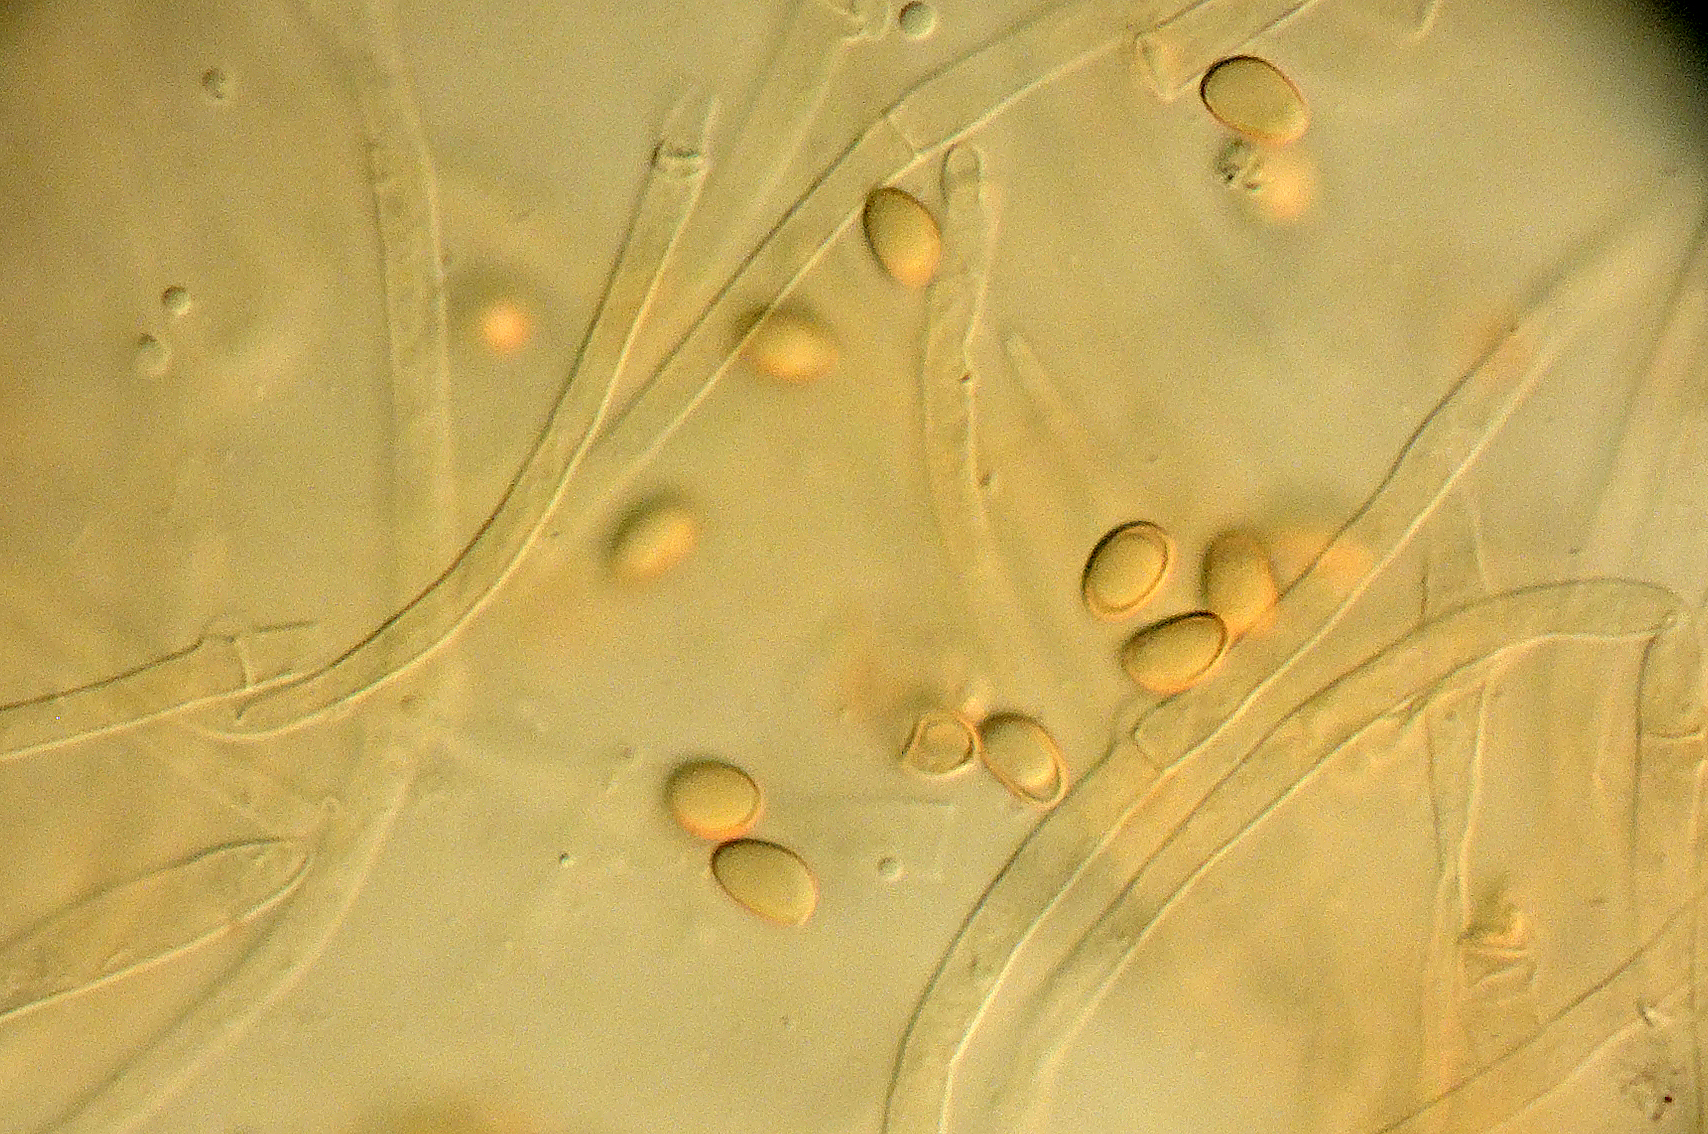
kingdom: Fungi
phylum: Basidiomycota
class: Agaricomycetes
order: Agaricales
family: Hymenogastraceae
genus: Hebeloma
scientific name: Hebeloma subtortum
